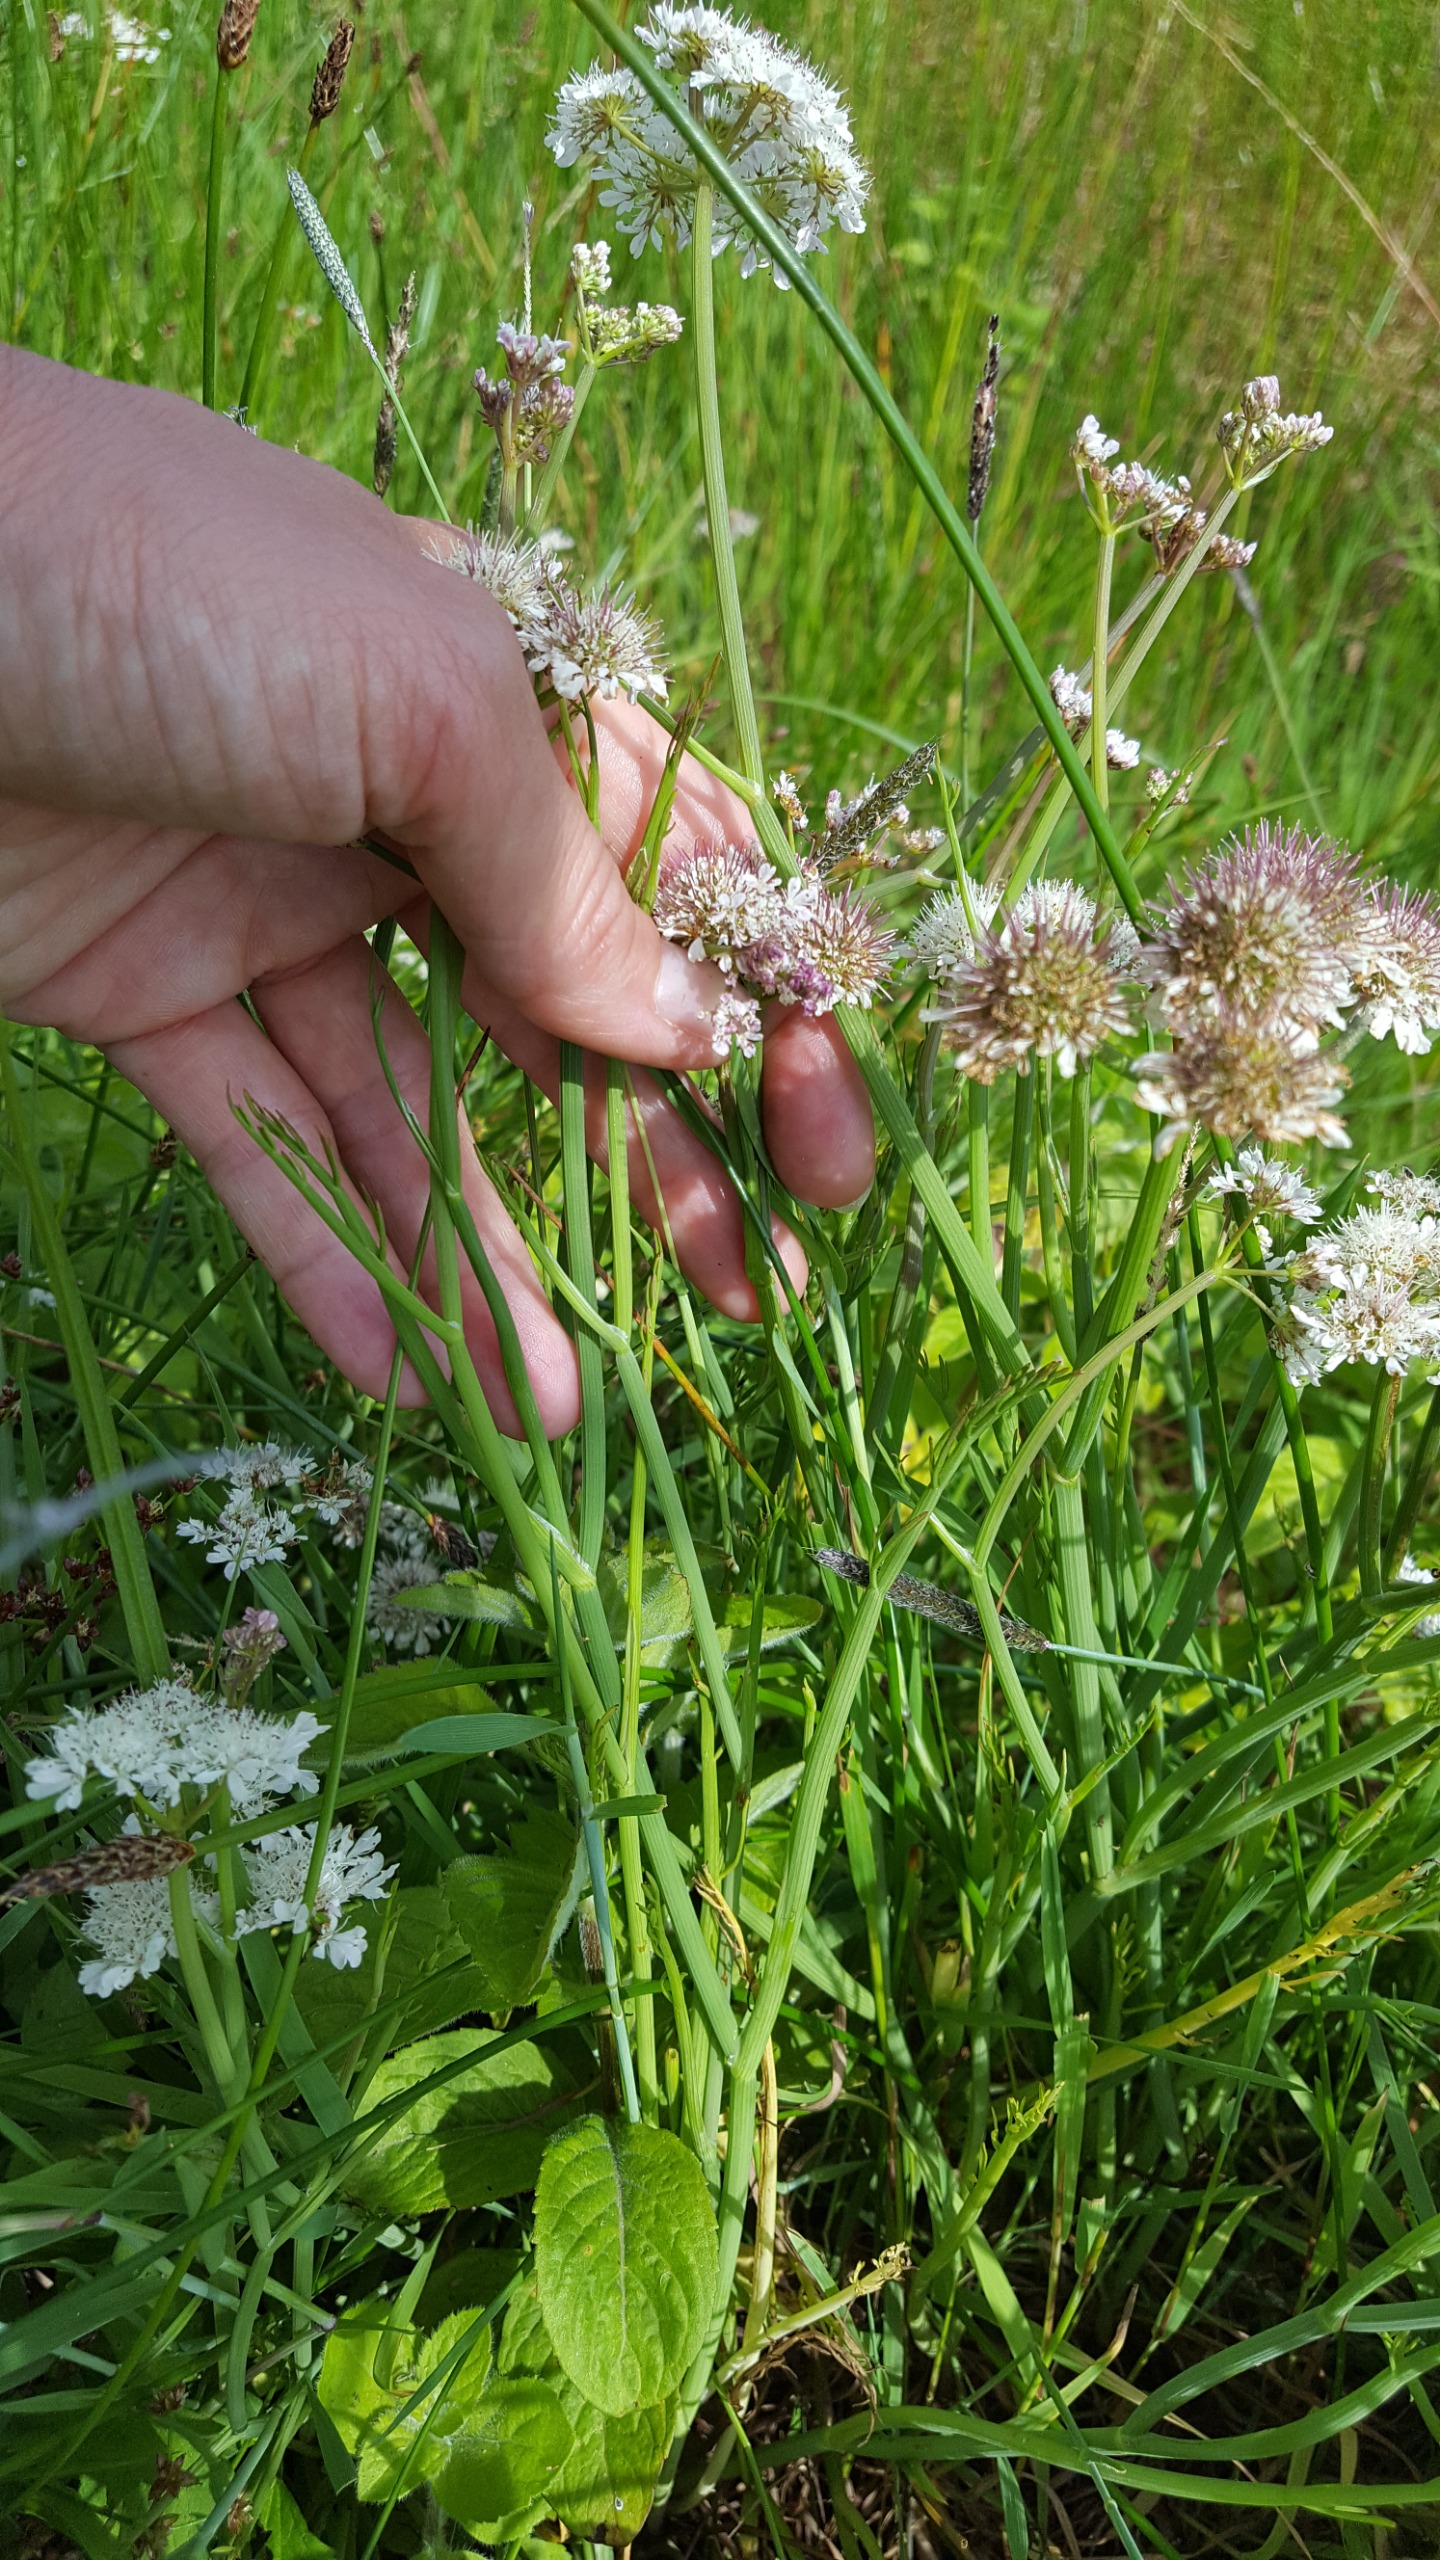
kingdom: Plantae
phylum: Tracheophyta
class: Magnoliopsida
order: Apiales
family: Apiaceae
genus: Oenanthe
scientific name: Oenanthe fistulosa
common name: Vand-klaseskærm
